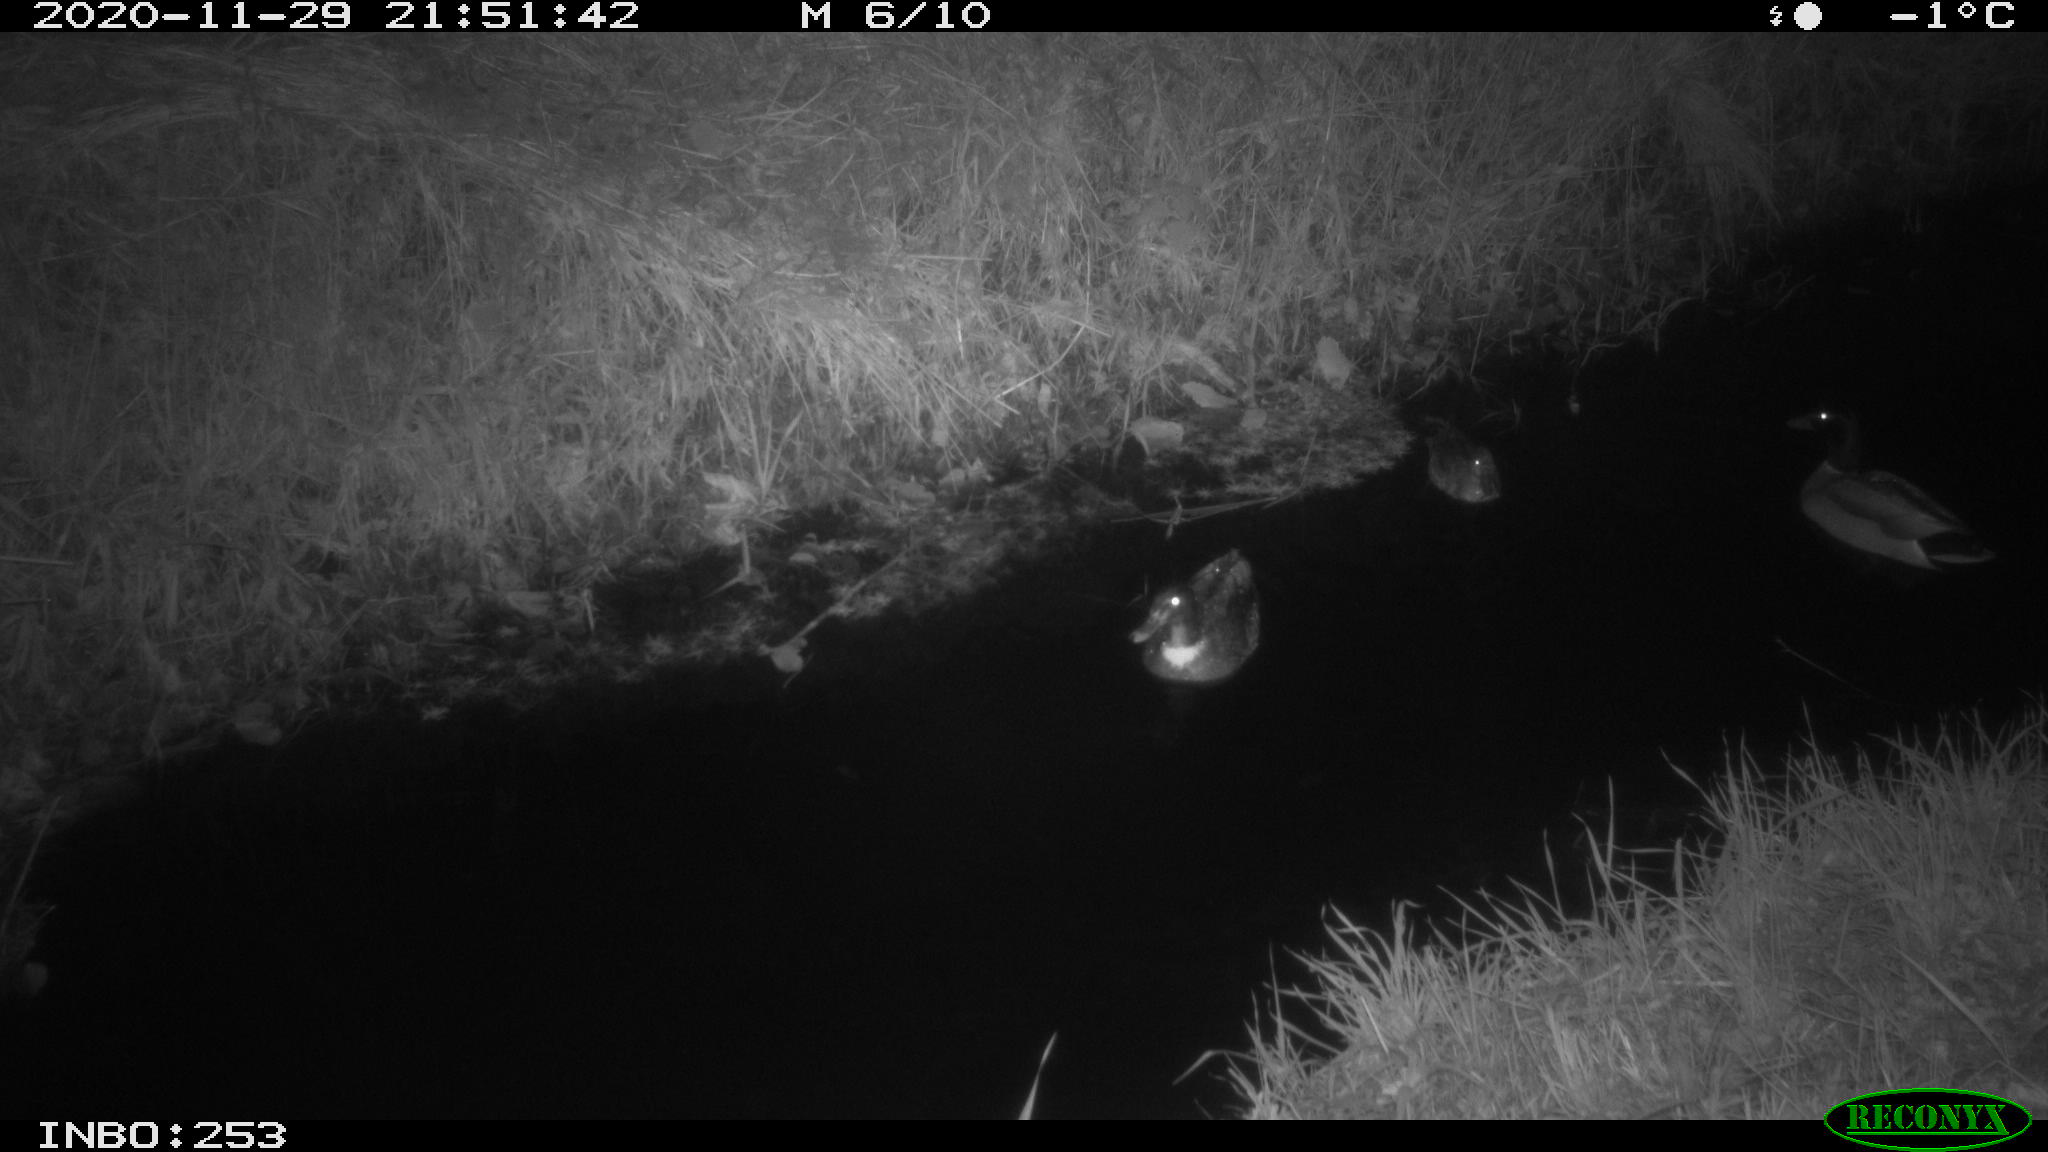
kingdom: Animalia
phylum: Chordata
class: Aves
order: Anseriformes
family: Anatidae
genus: Anas
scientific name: Anas crecca
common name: Eurasian teal
